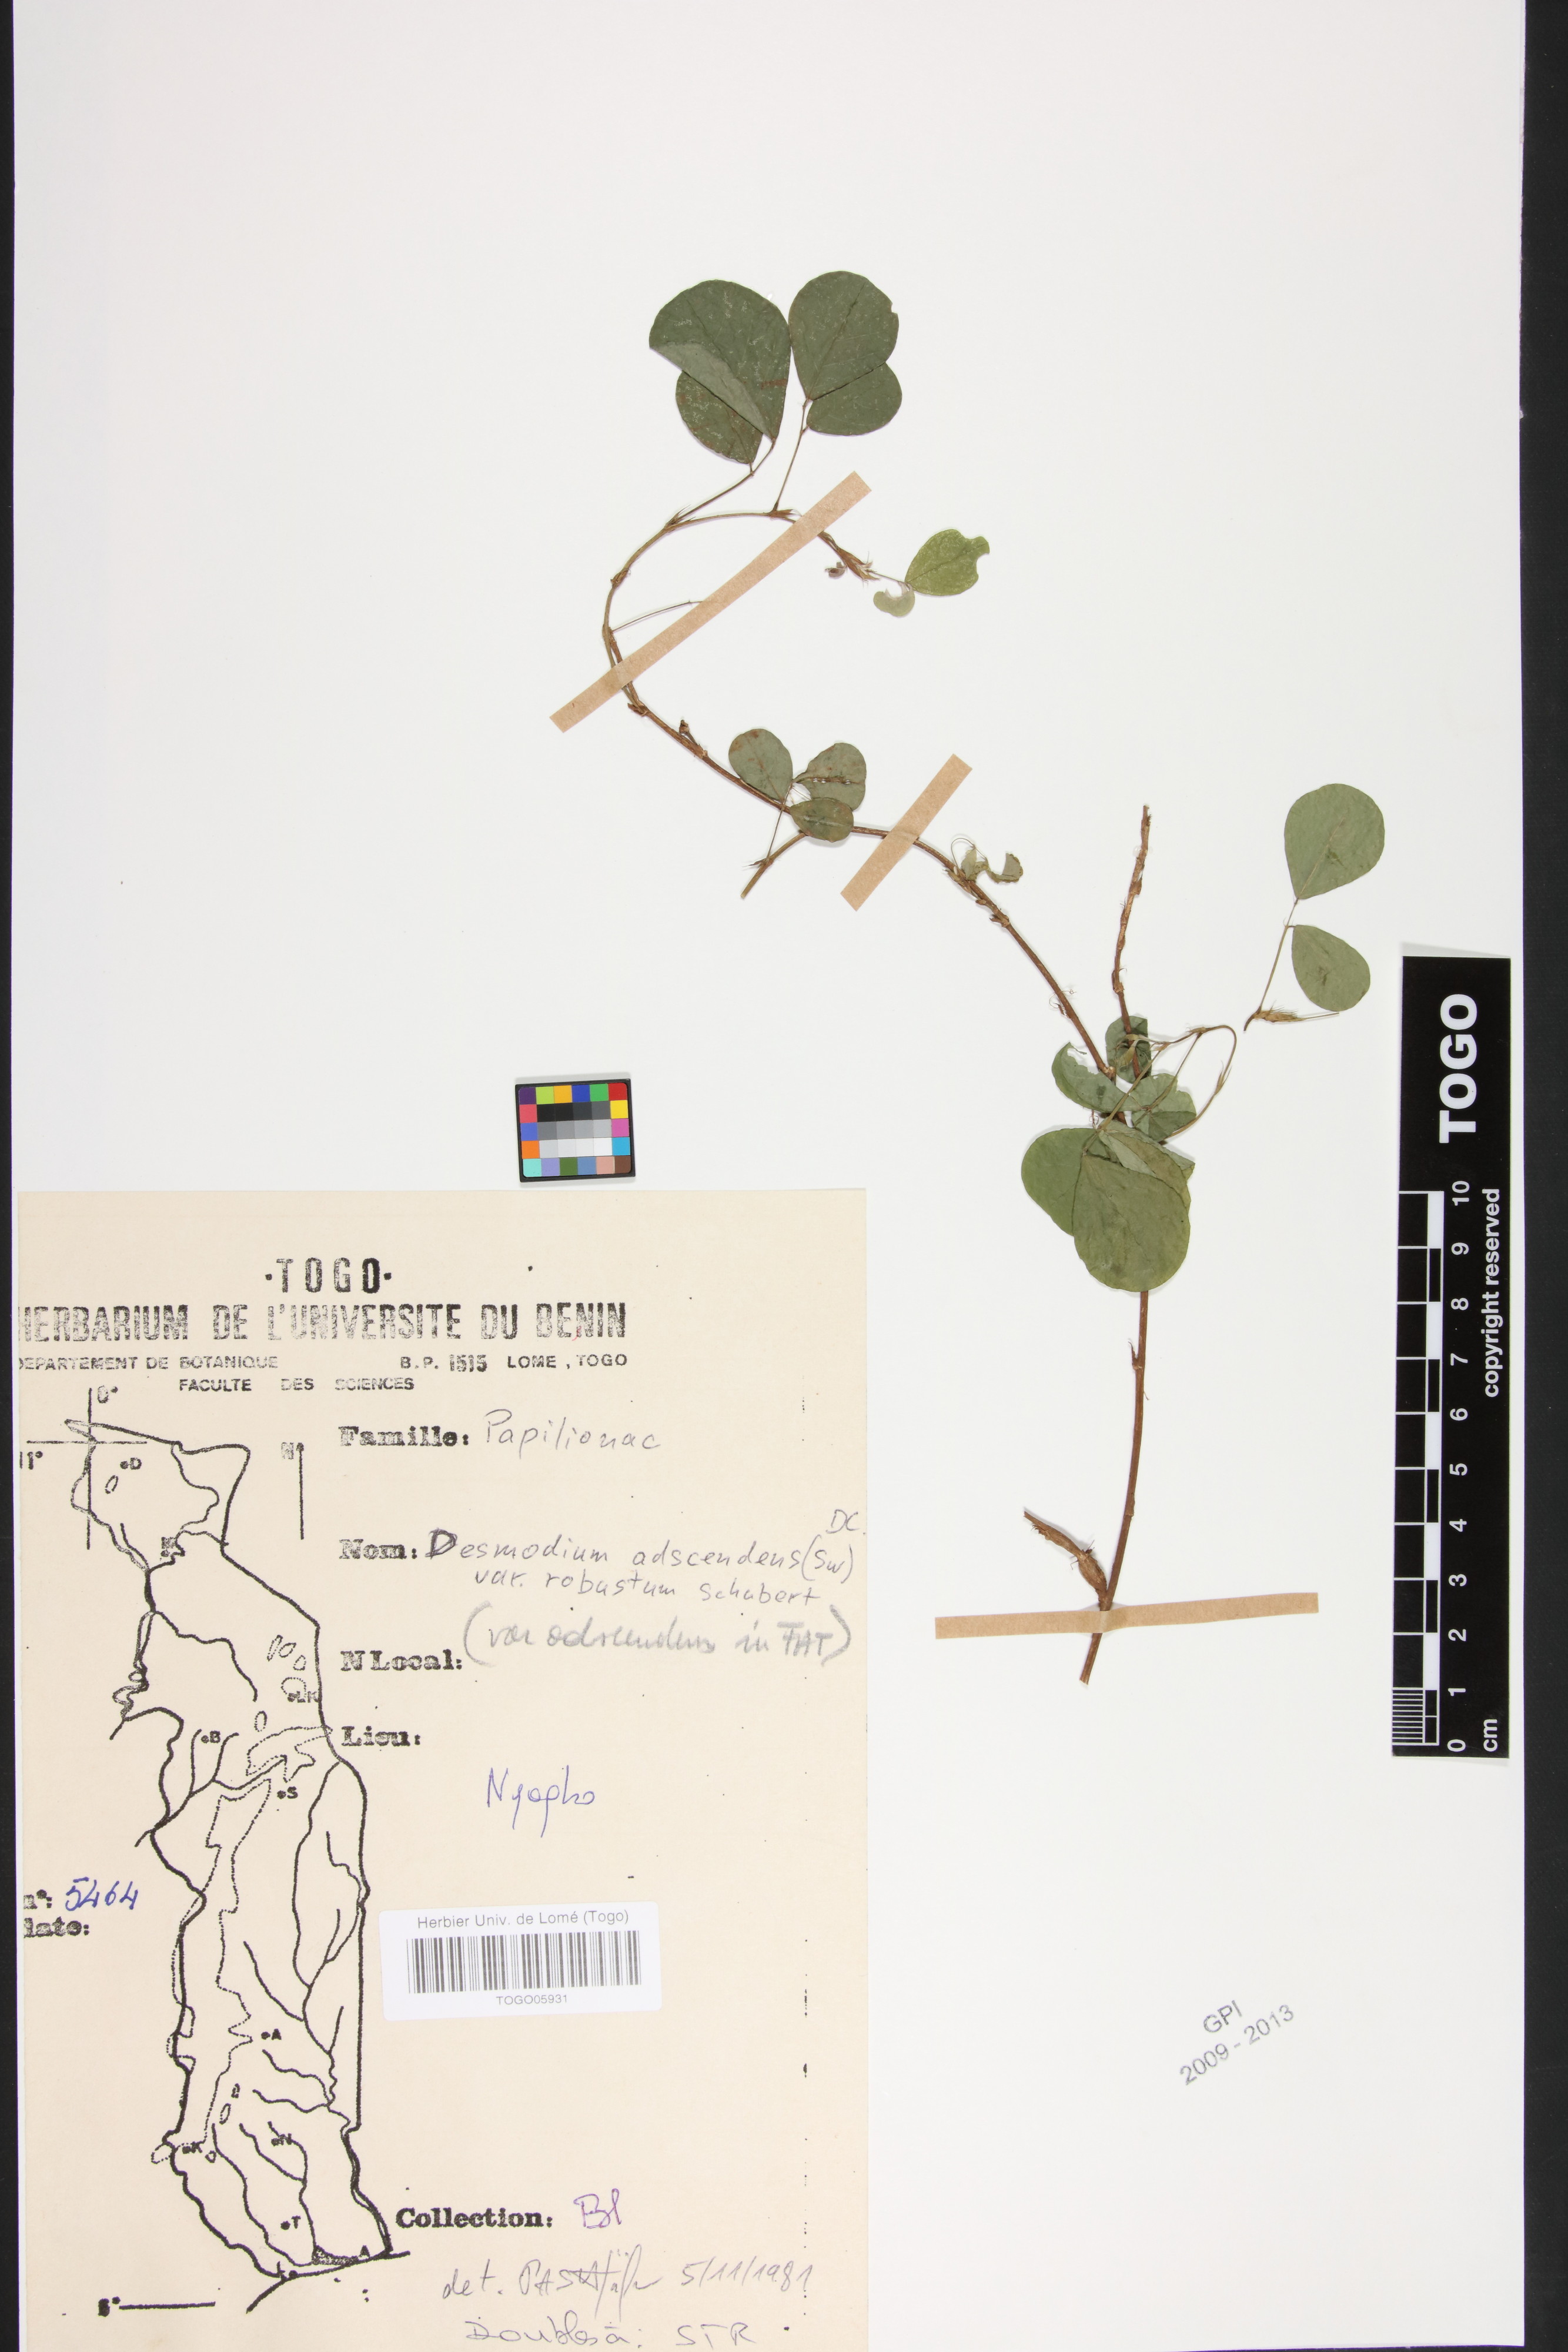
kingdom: Plantae
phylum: Tracheophyta
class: Magnoliopsida
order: Fabales
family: Fabaceae
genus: Grona
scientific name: Grona adscendens
